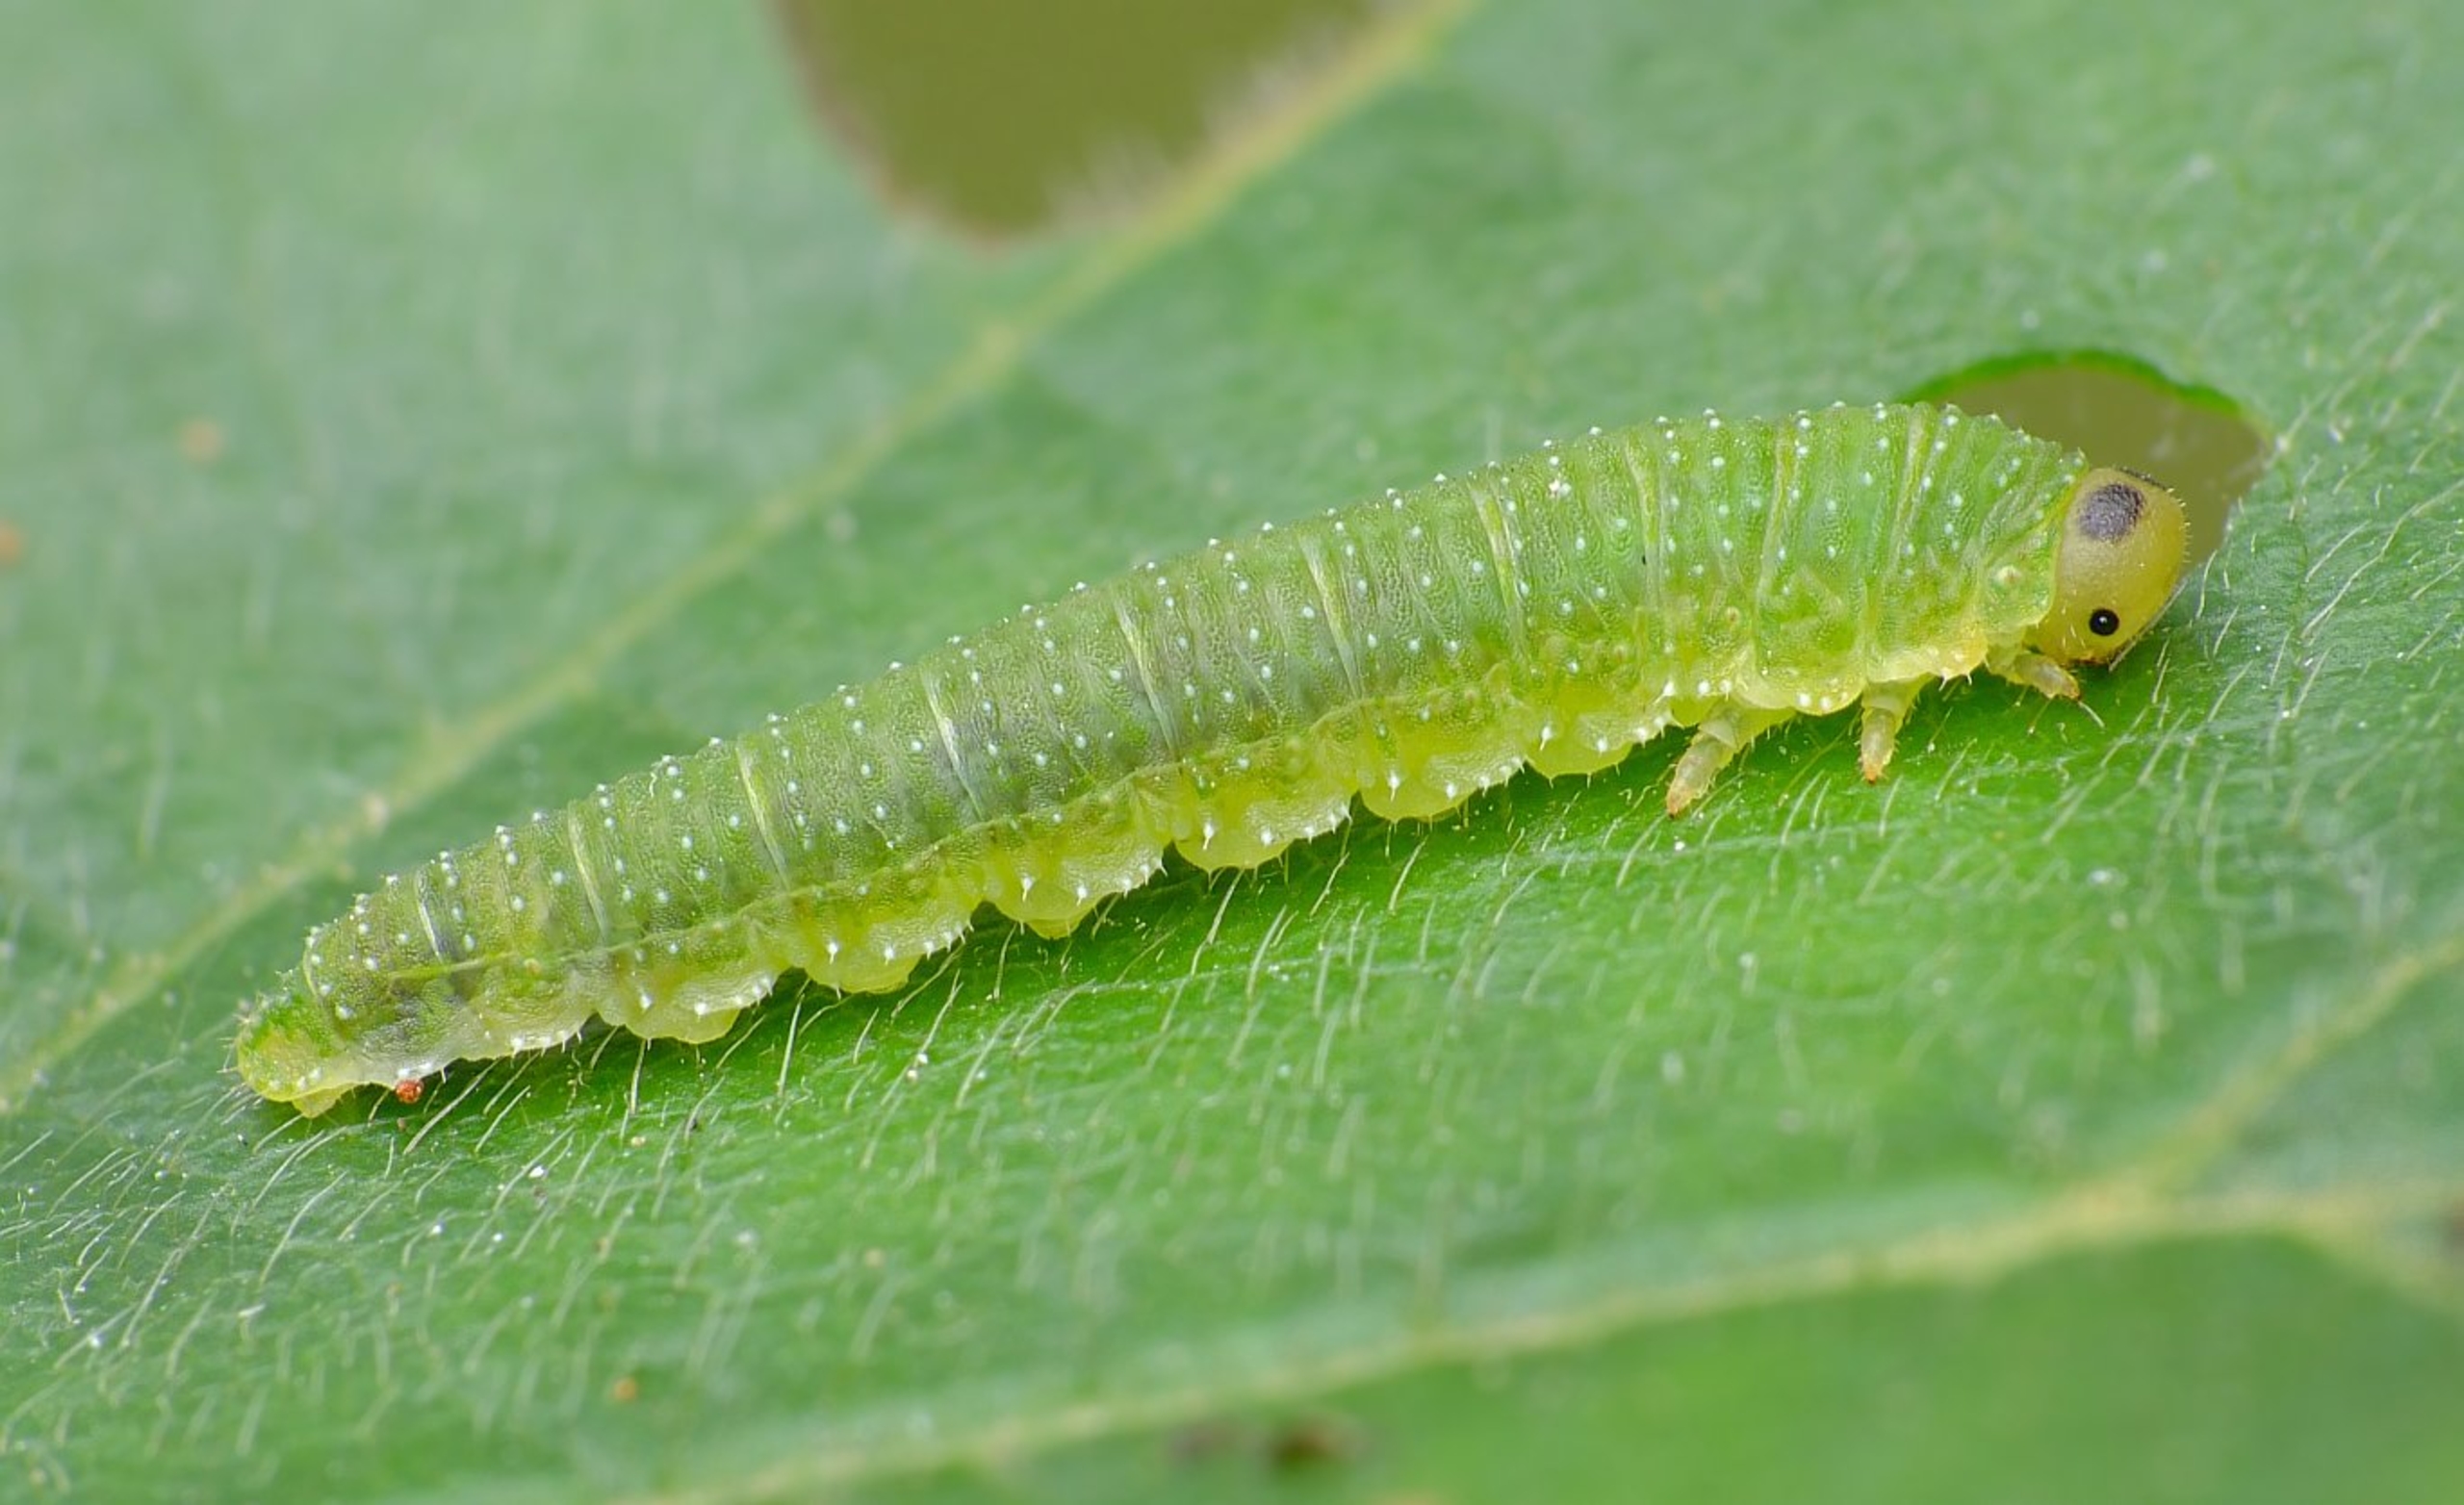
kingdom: Animalia
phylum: Arthropoda
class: Insecta
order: Hymenoptera
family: Tenthredinidae
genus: Nematinus
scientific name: Nematinus steini
